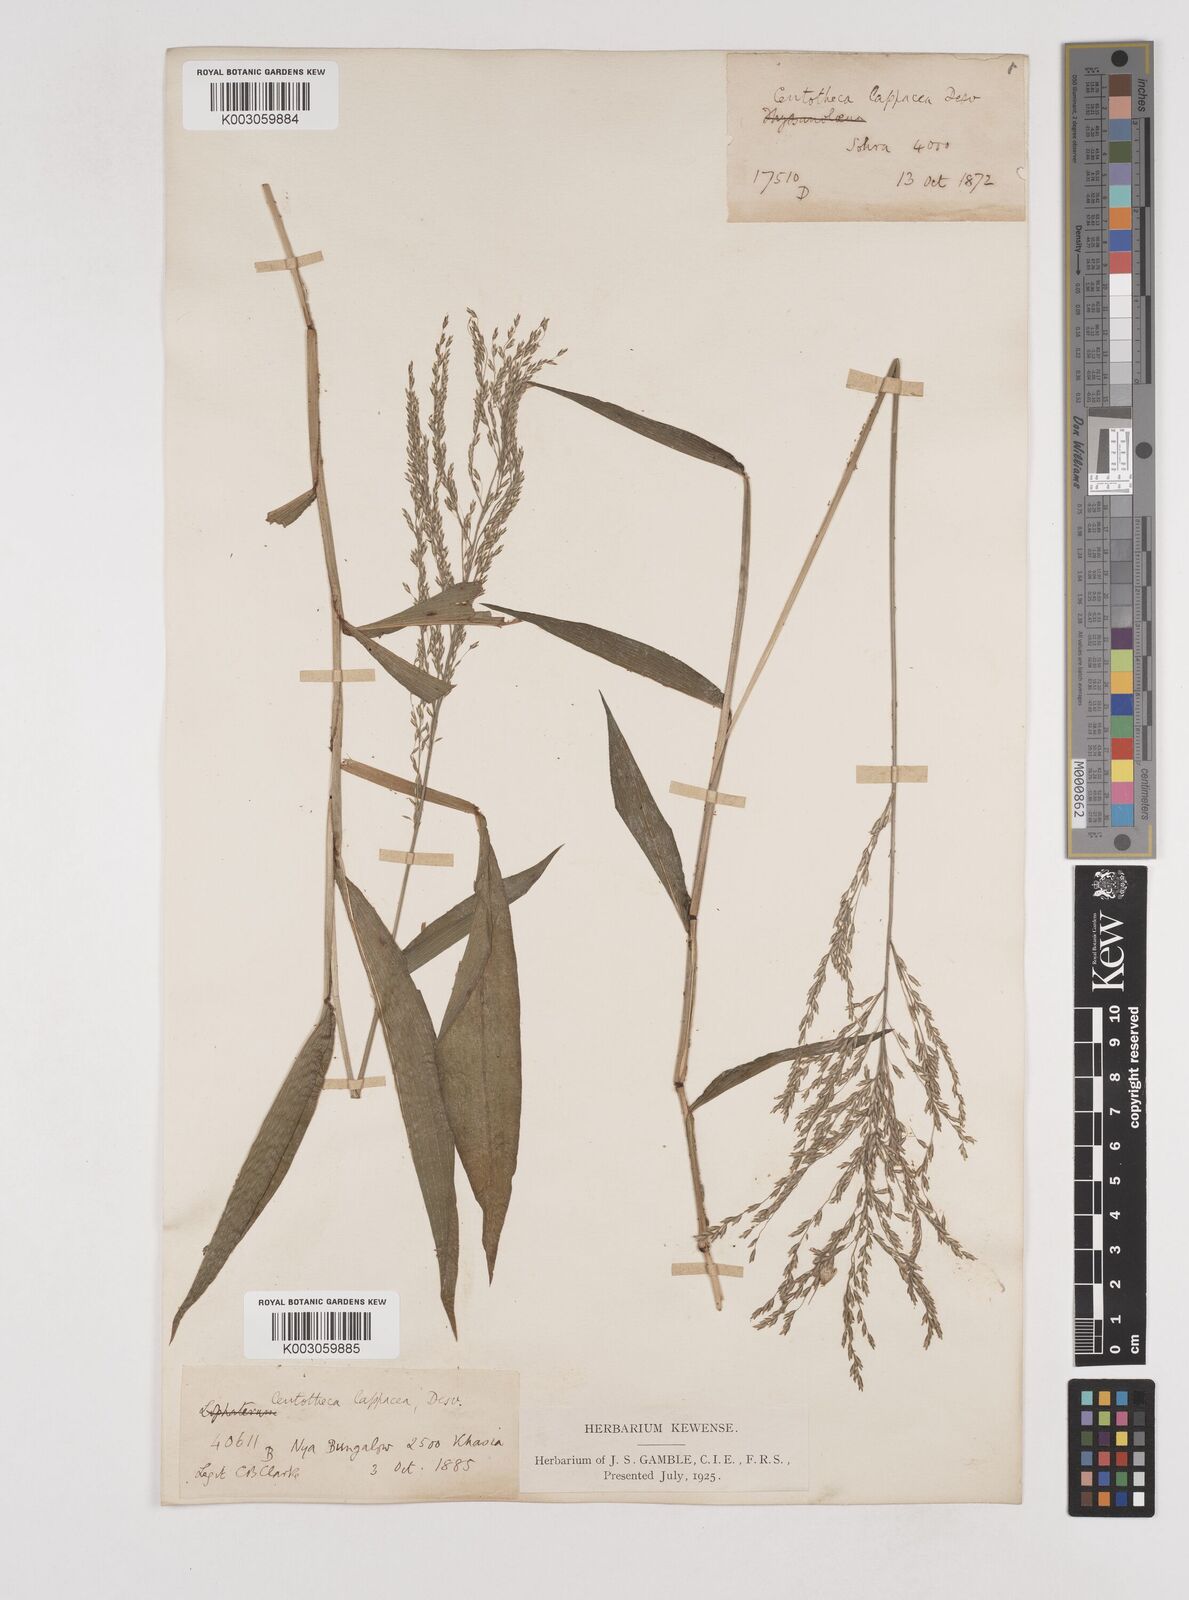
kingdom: Plantae
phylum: Tracheophyta
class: Liliopsida
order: Poales
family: Poaceae
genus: Centotheca
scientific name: Centotheca lappacea
